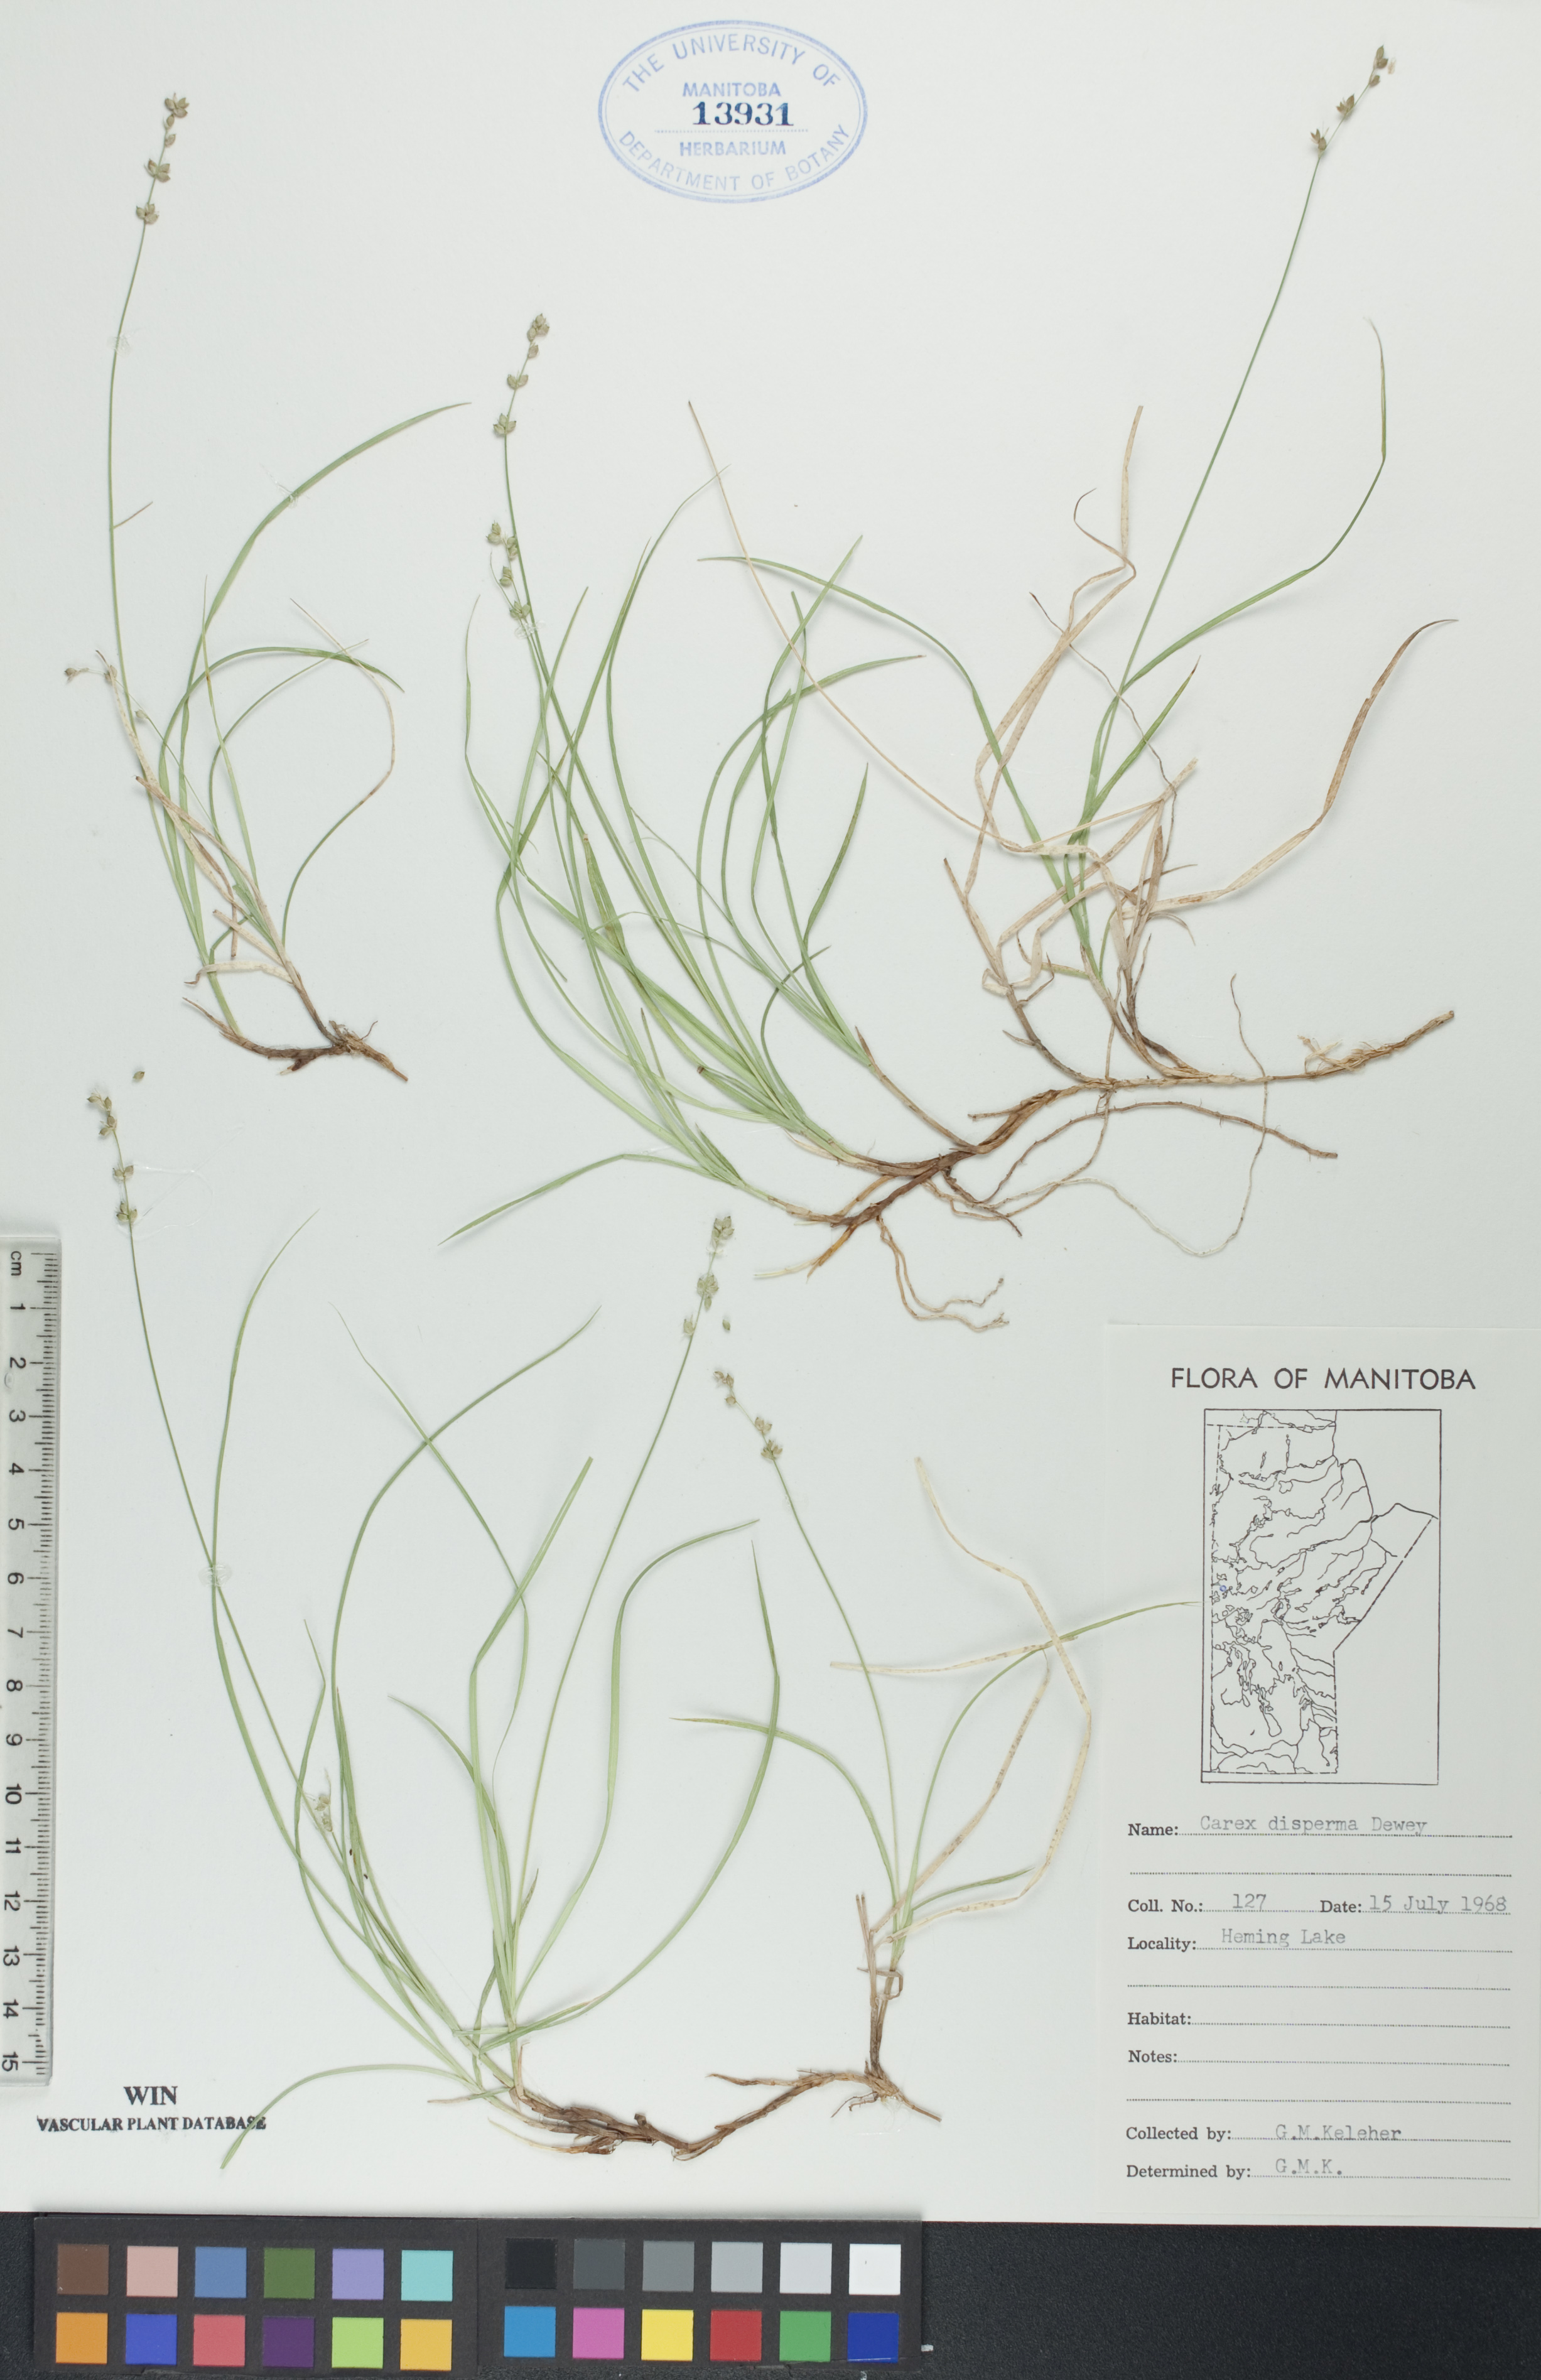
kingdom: Plantae
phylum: Tracheophyta
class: Liliopsida
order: Poales
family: Cyperaceae
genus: Carex
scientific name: Carex disperma
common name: Short-leaved sedge
